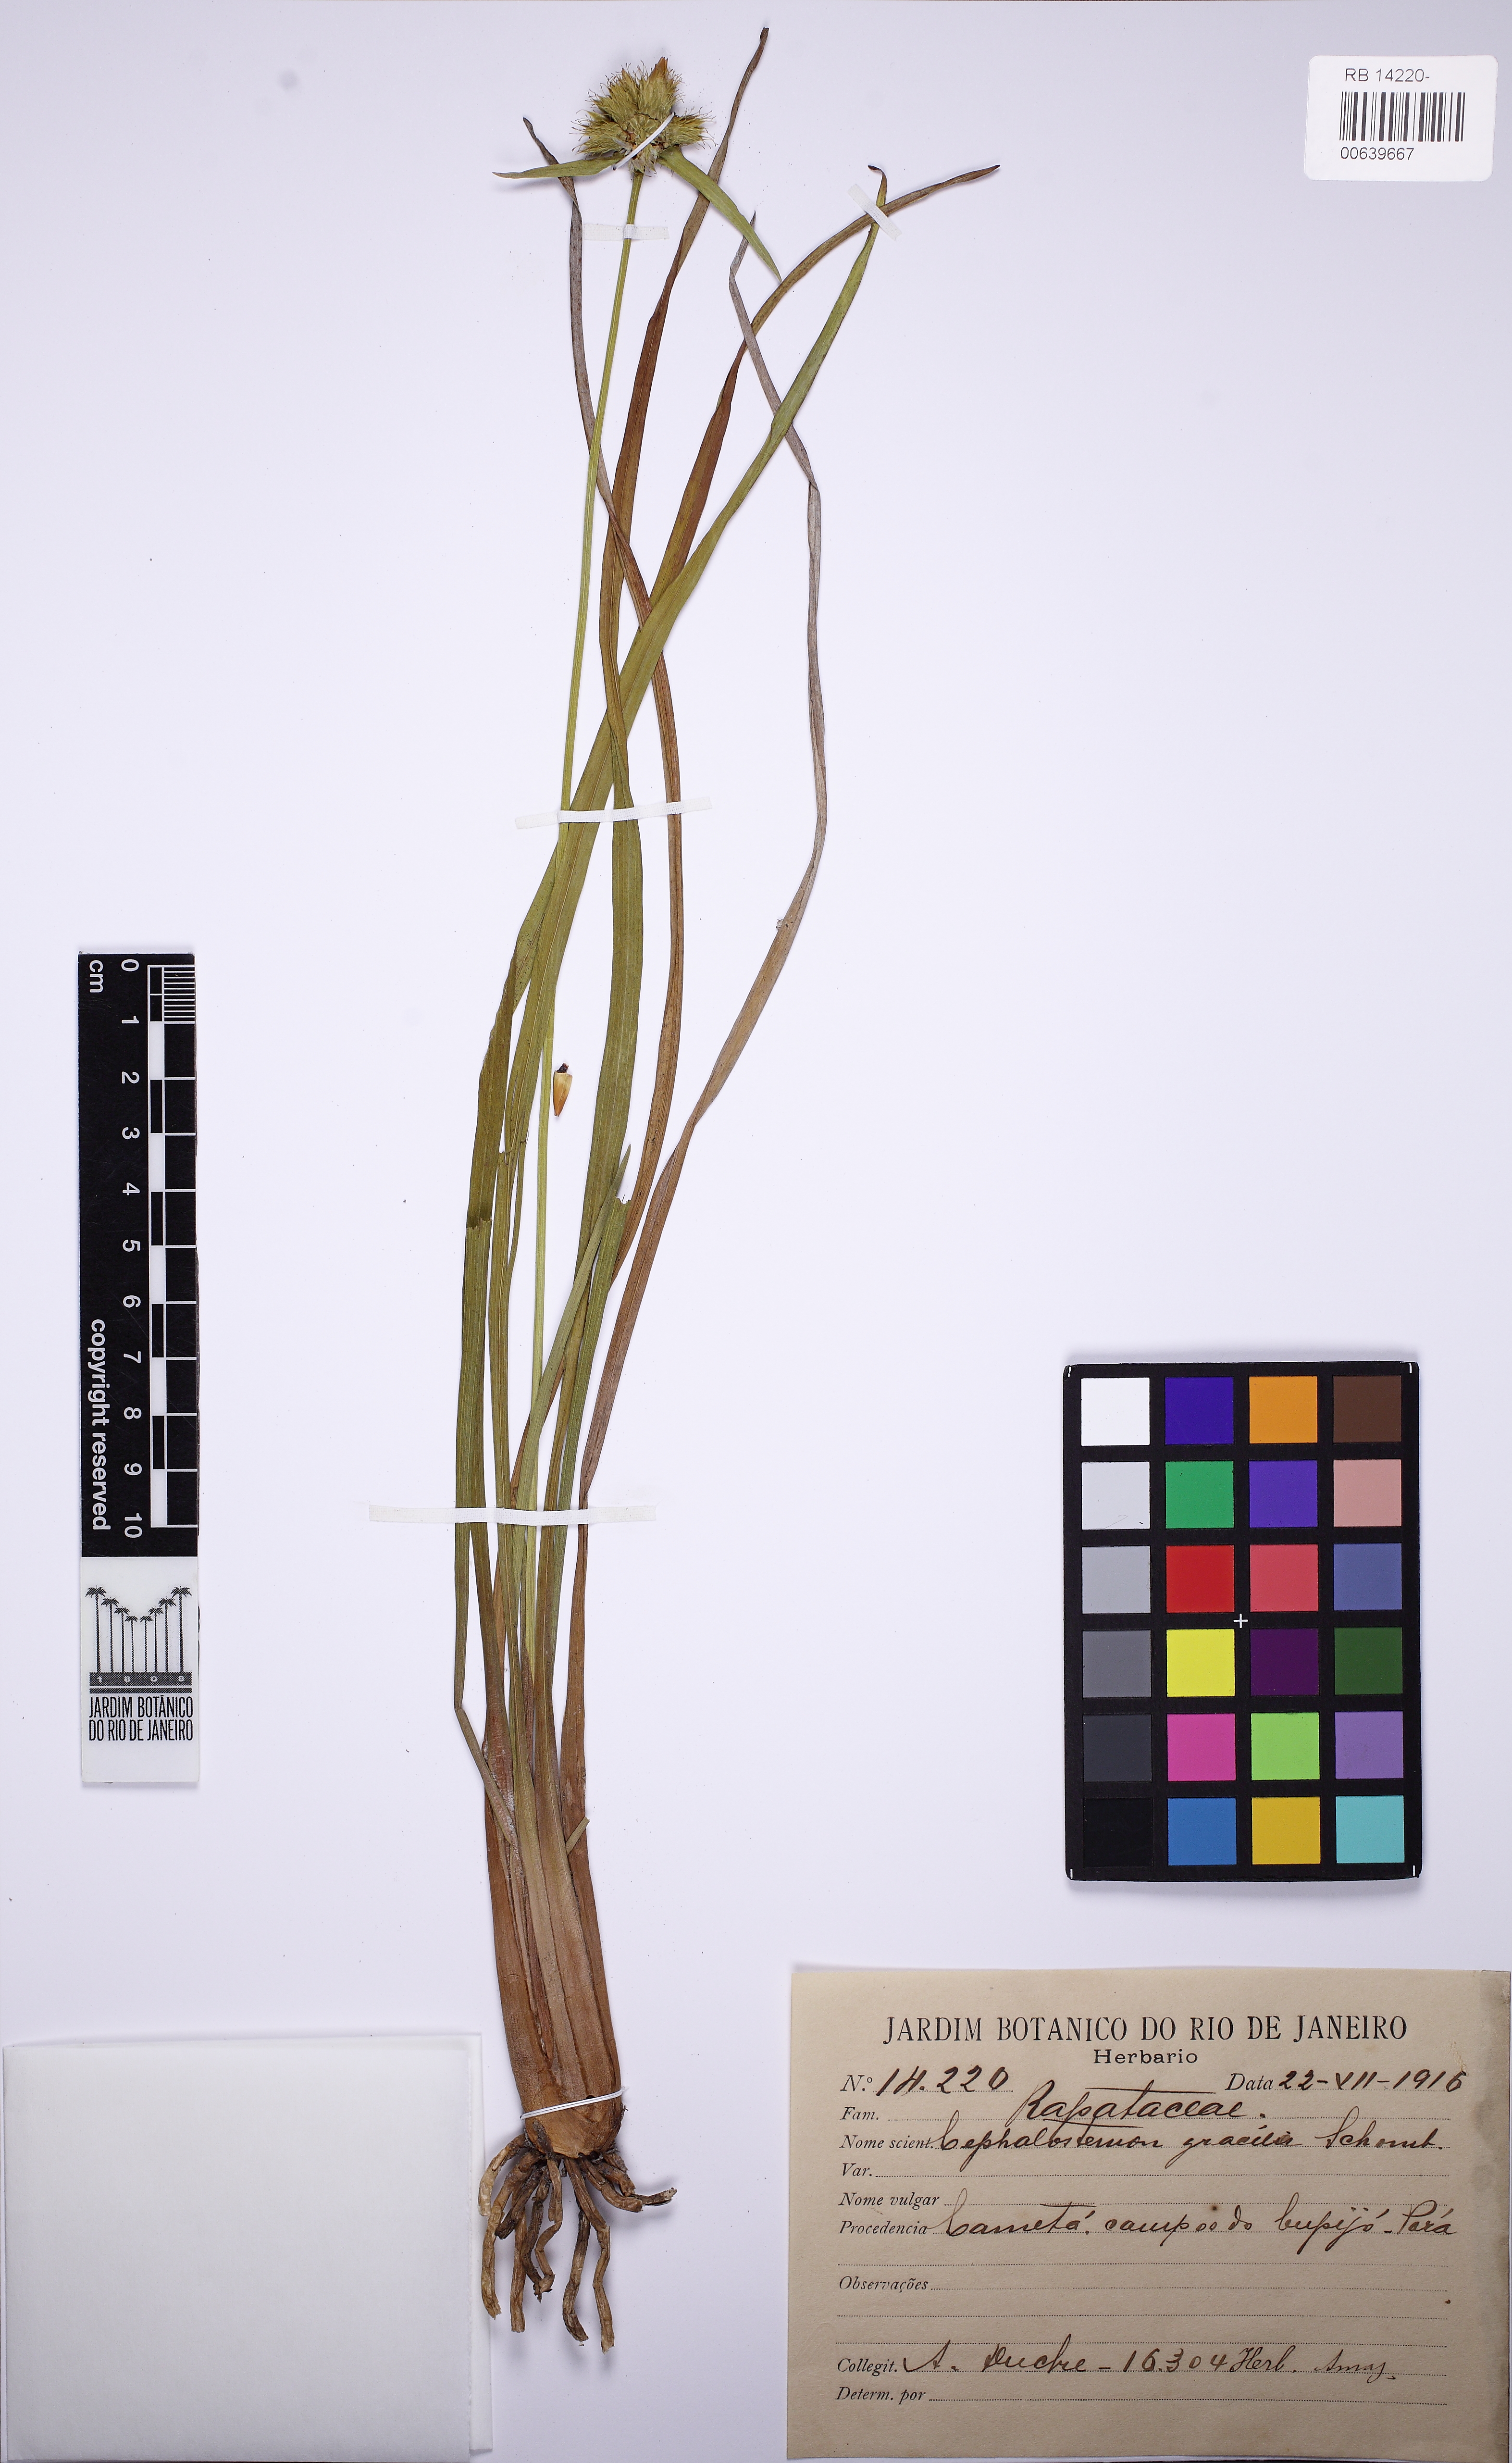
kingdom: Plantae
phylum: Tracheophyta
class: Liliopsida
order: Poales
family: Rapateaceae
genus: Cephalostemon
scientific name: Cephalostemon gracilis
